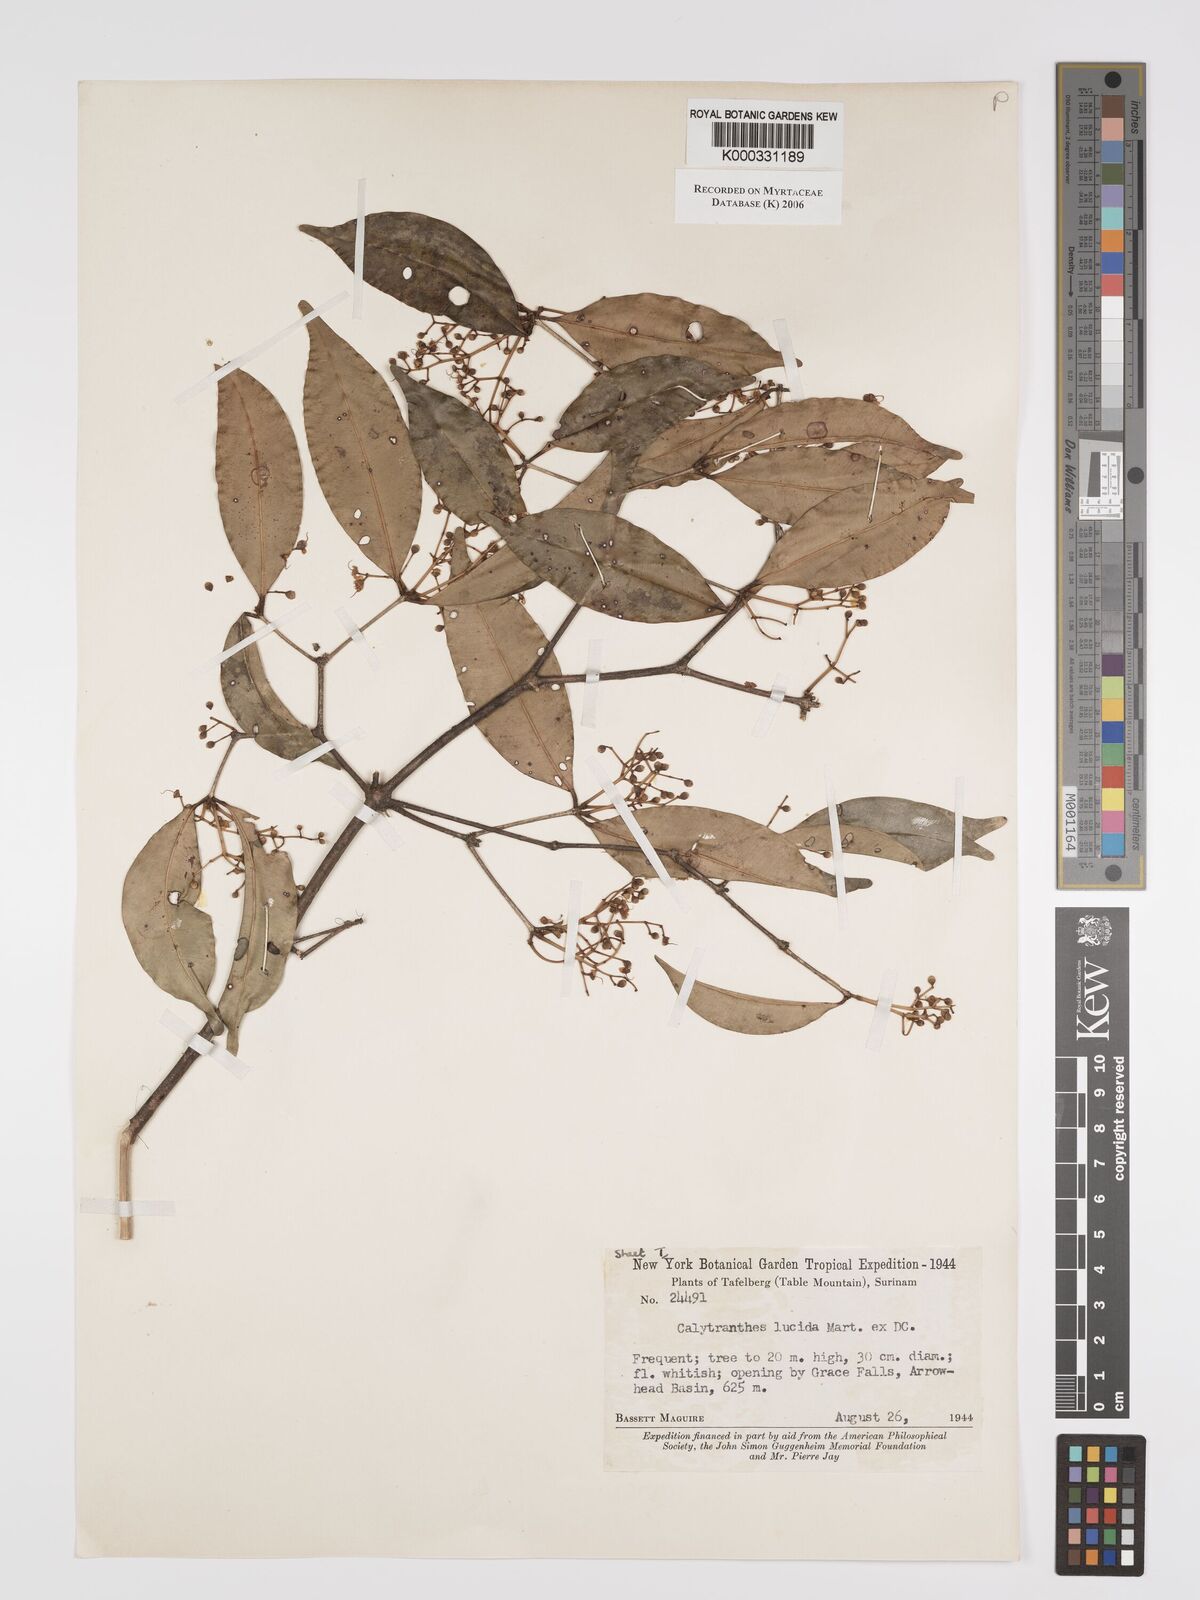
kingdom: Plantae
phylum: Tracheophyta
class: Magnoliopsida
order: Myrtales
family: Myrtaceae
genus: Myrcia
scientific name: Myrcia neolucida
